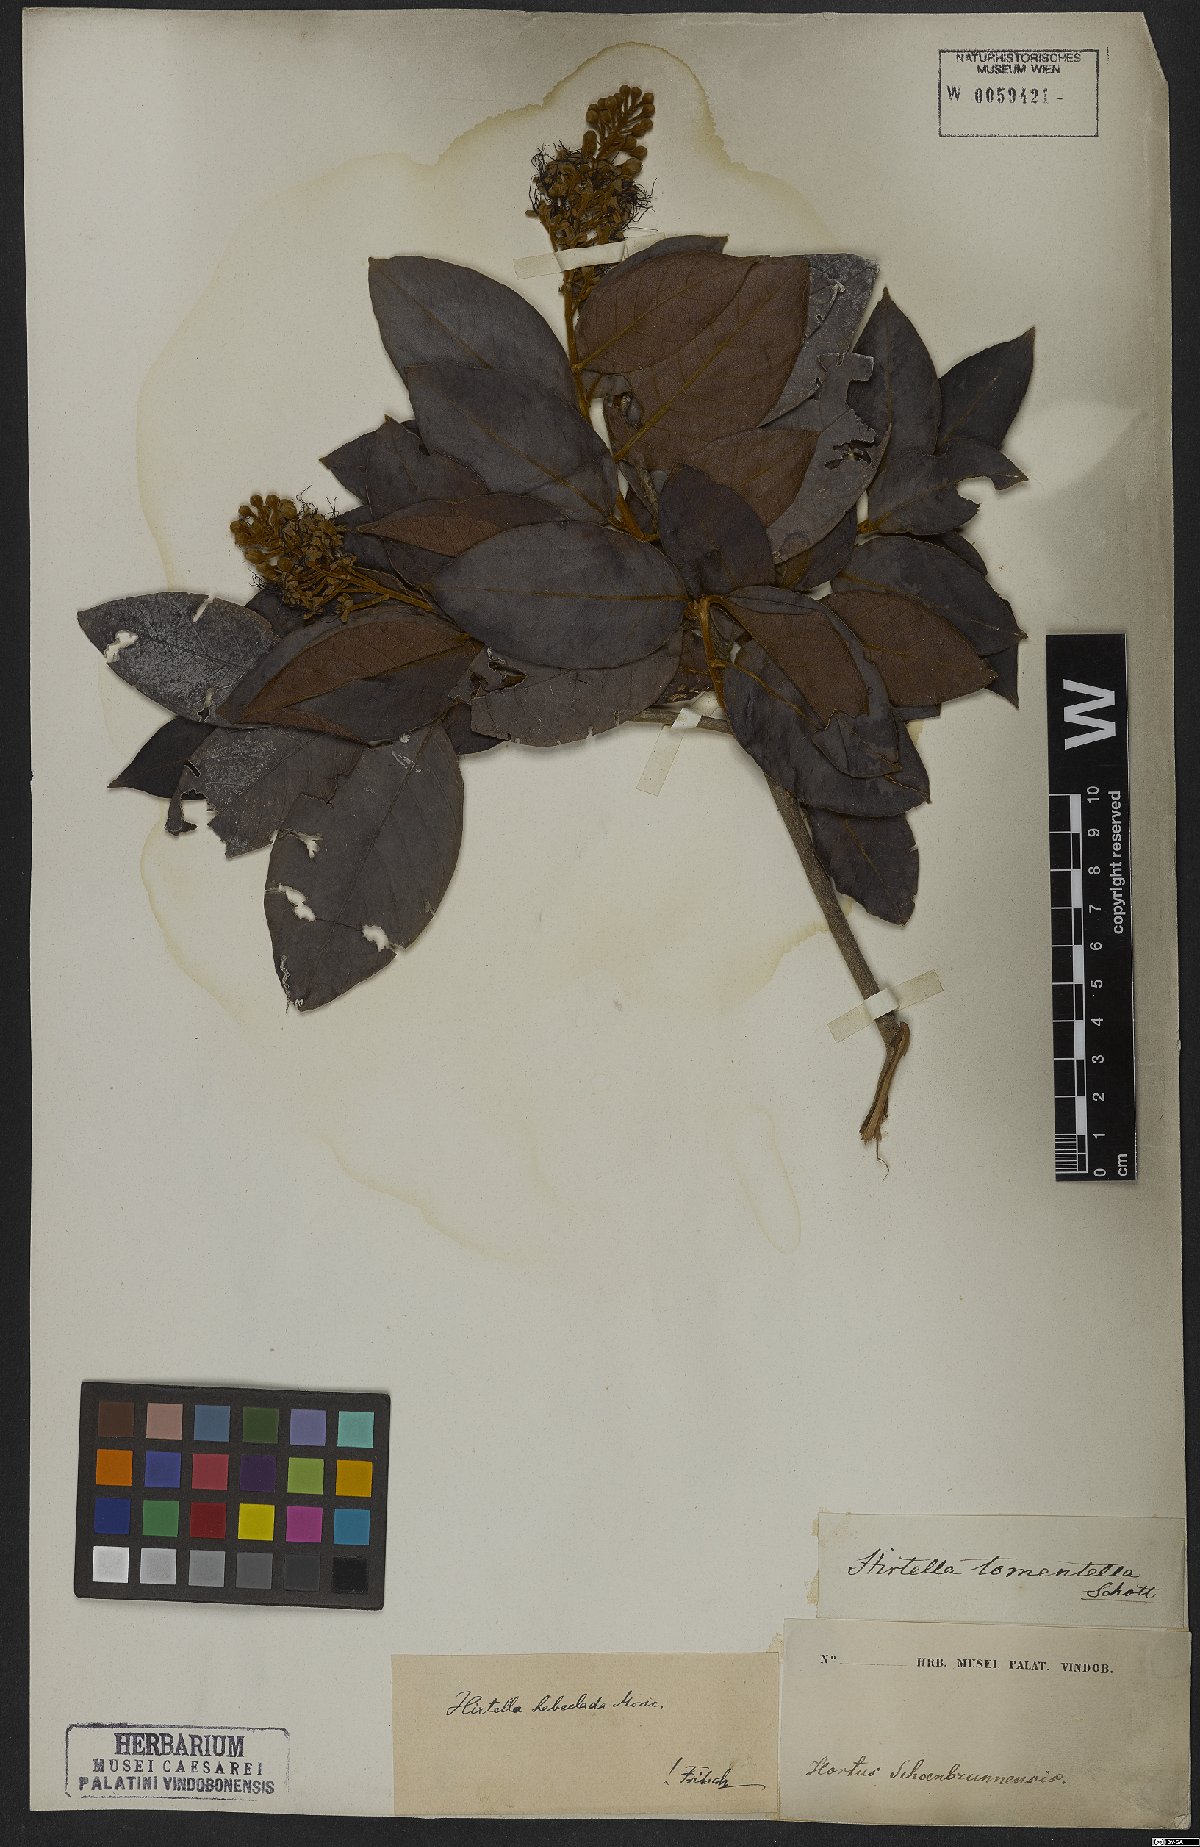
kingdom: Plantae
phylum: Tracheophyta
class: Magnoliopsida
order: Malpighiales
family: Chrysobalanaceae
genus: Hirtella
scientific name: Hirtella hebeclada
